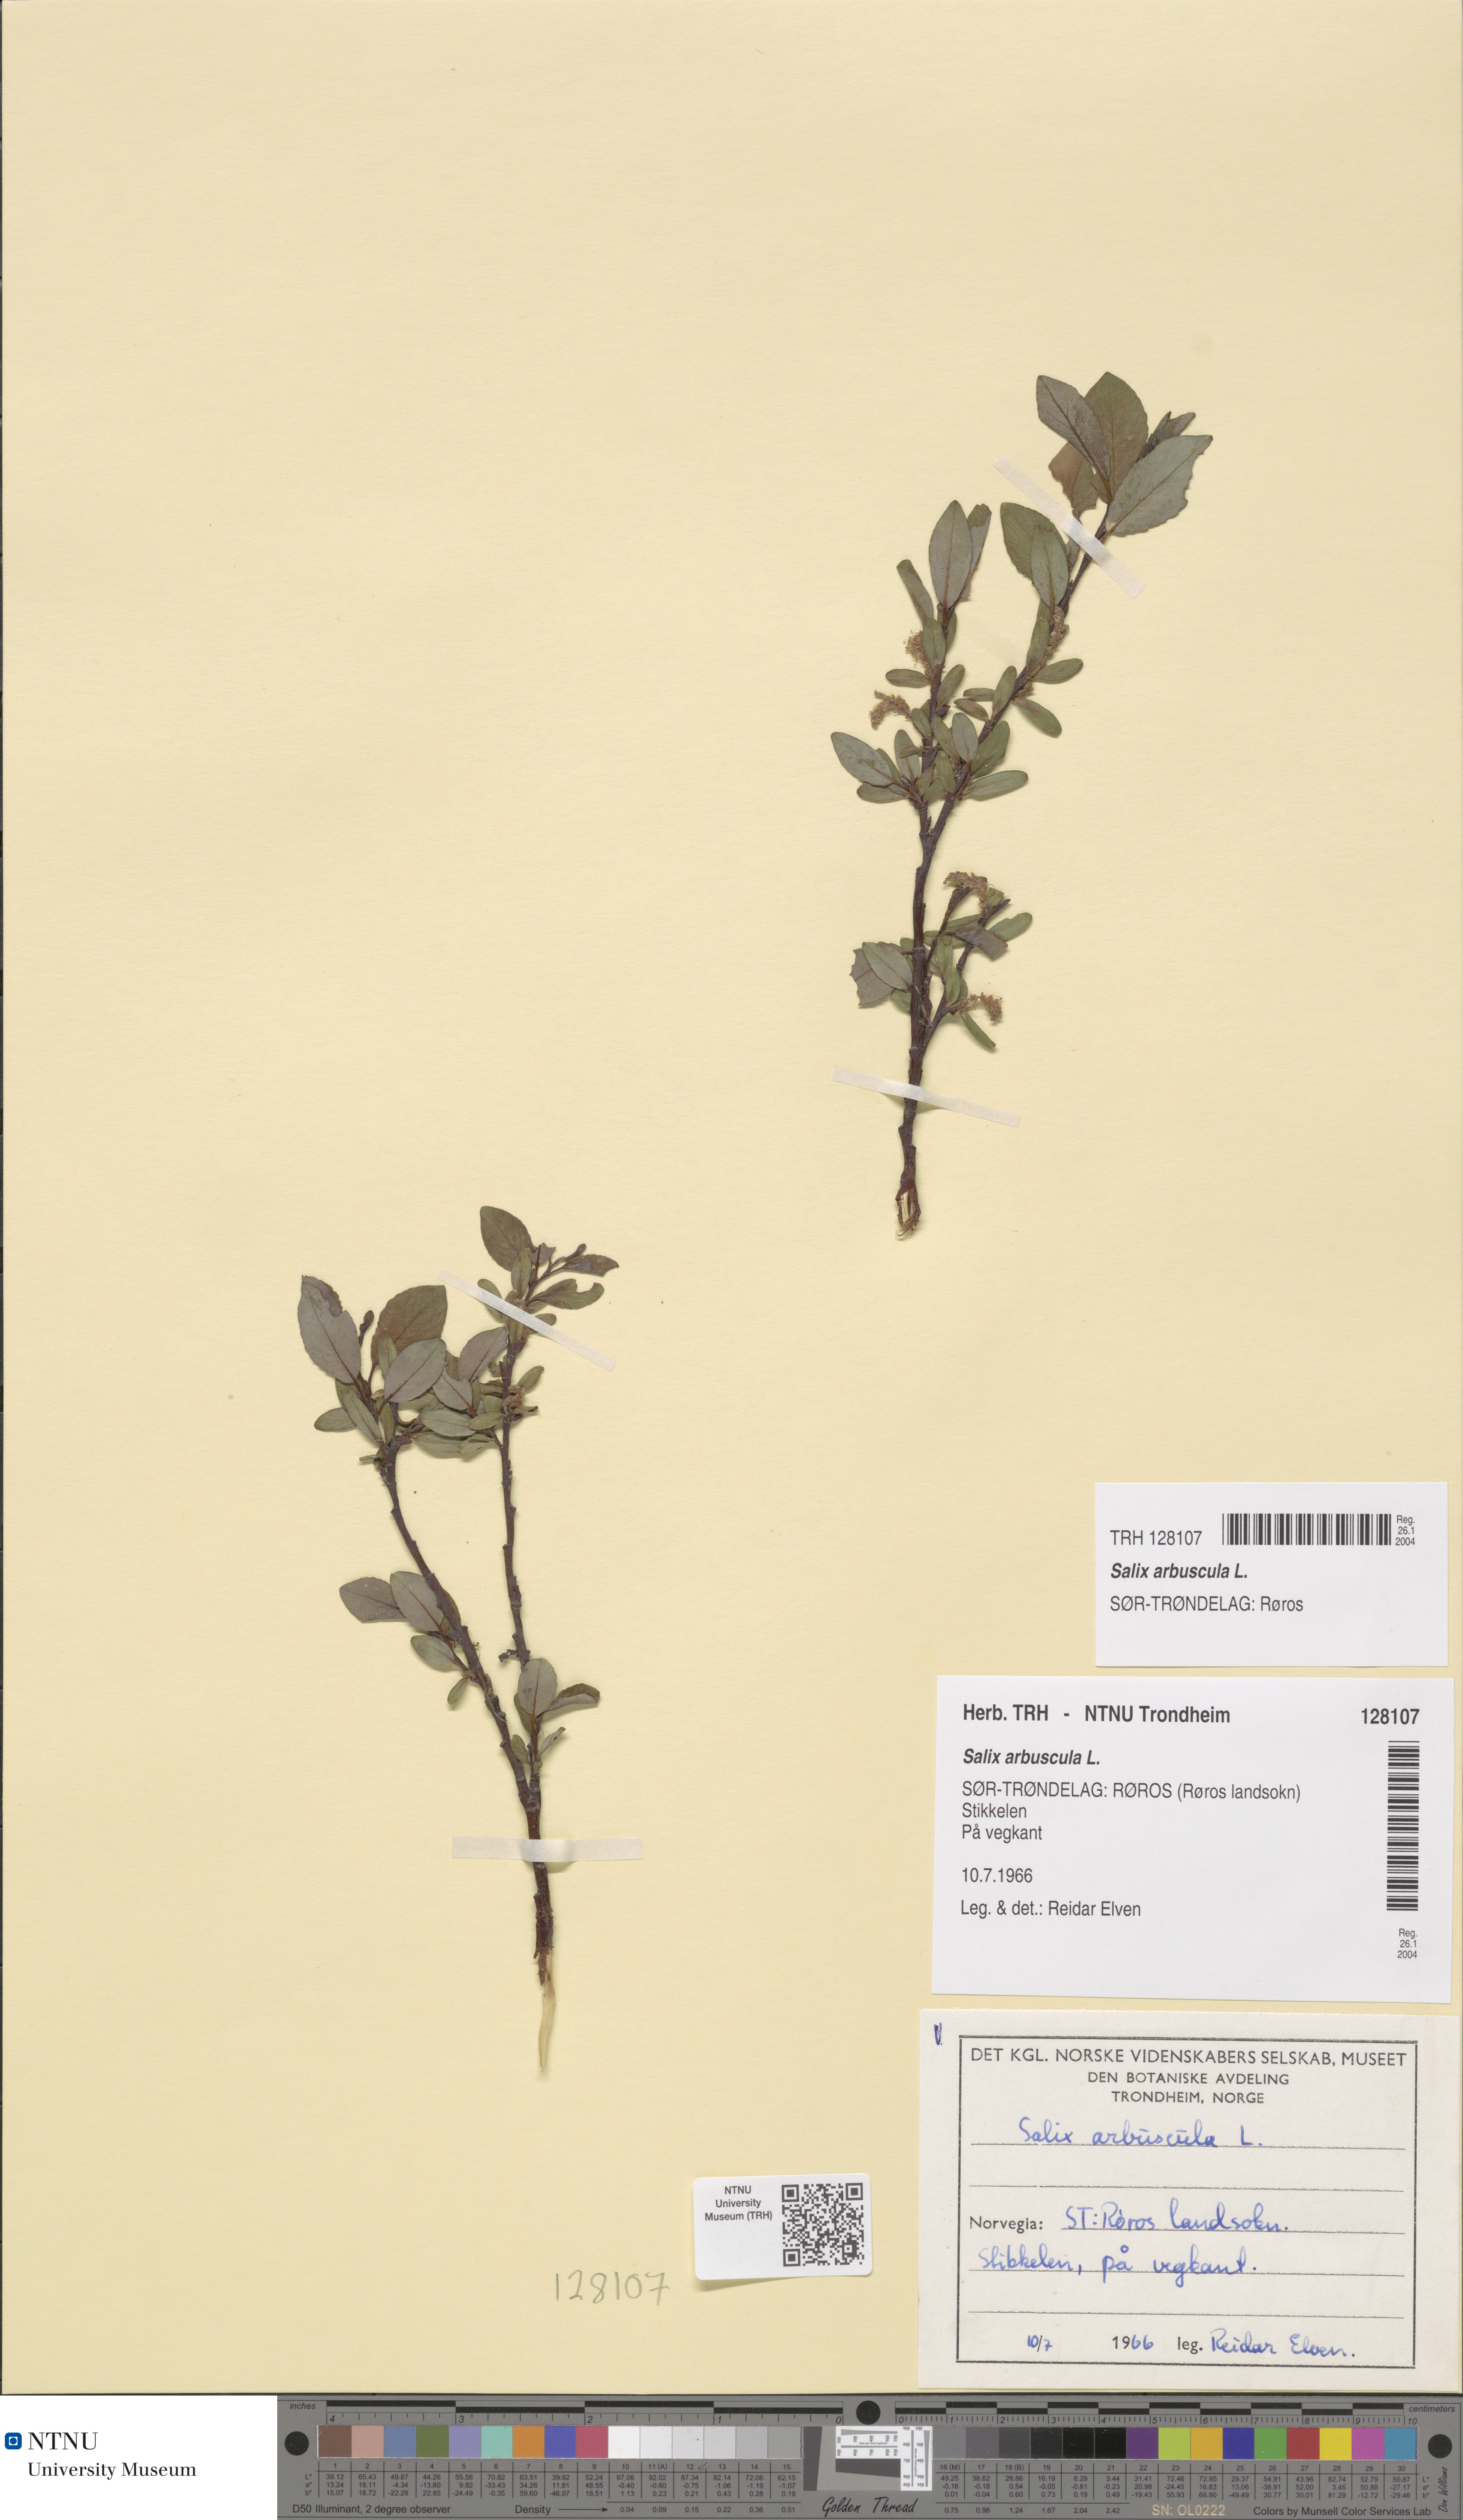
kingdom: Plantae
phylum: Tracheophyta
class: Magnoliopsida
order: Malpighiales
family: Salicaceae
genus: Salix
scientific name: Salix arbuscula
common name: Mountain willow
